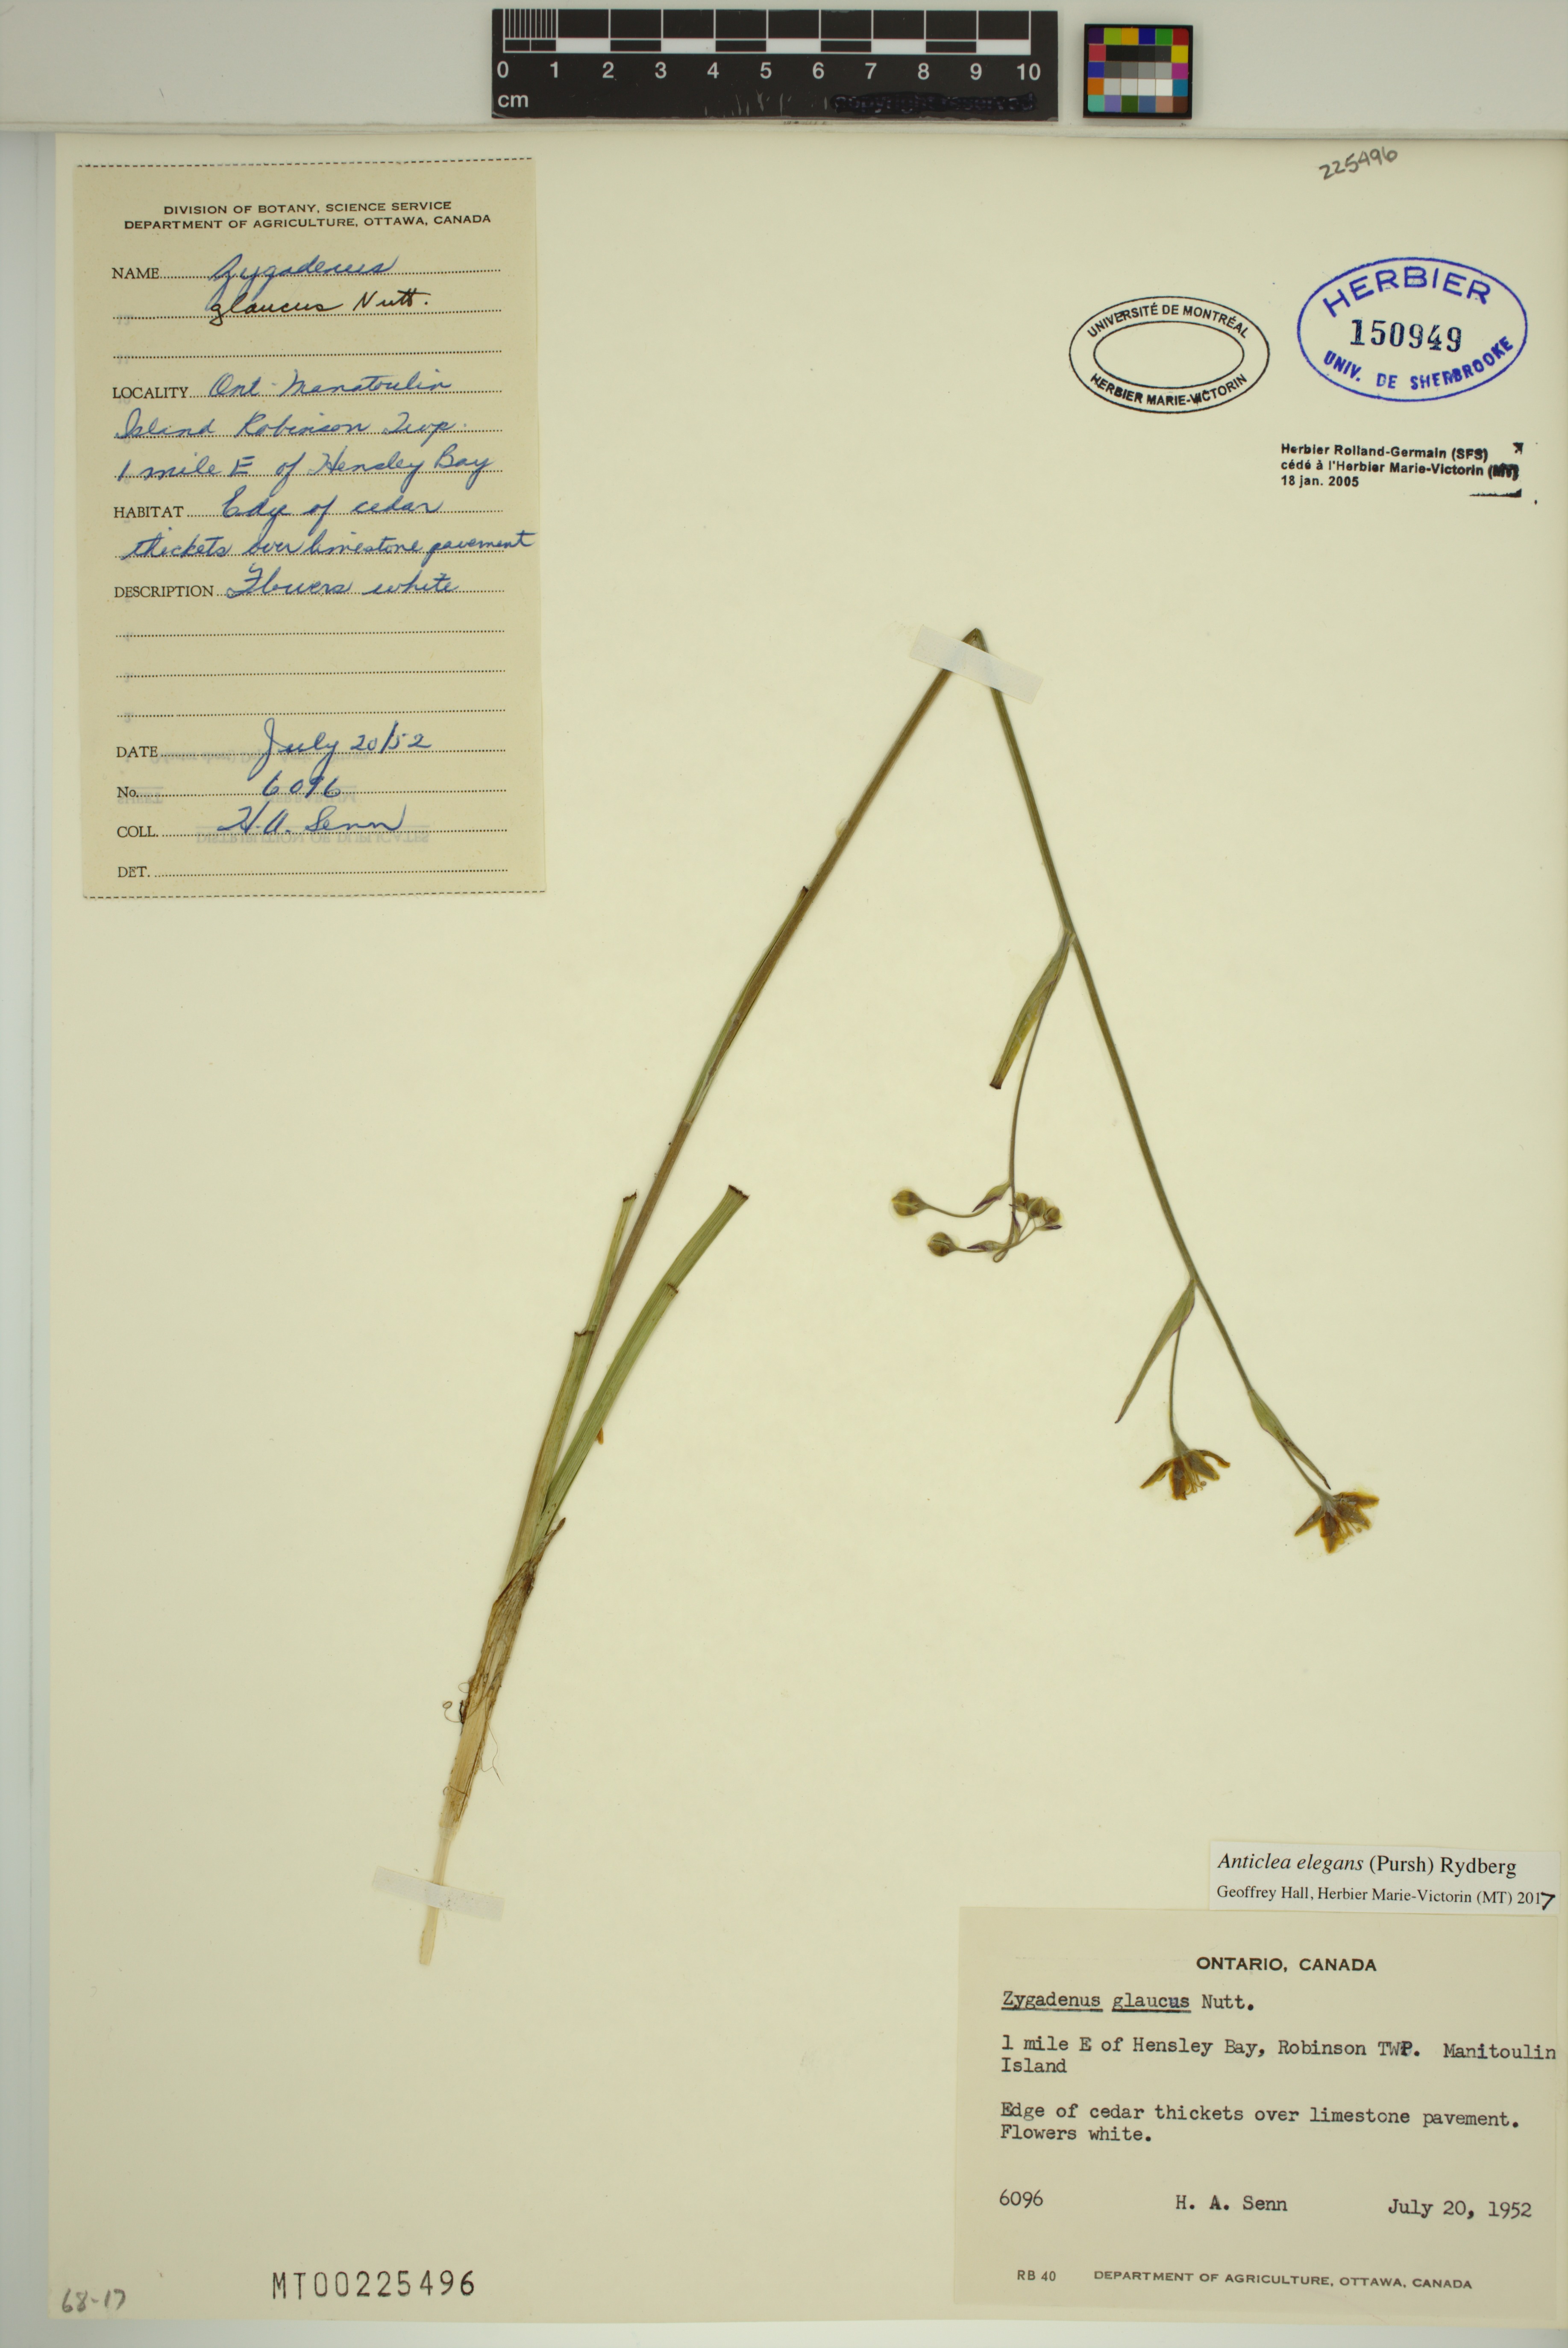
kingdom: Plantae
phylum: Tracheophyta
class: Liliopsida
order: Liliales
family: Melanthiaceae
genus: Anticlea
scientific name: Anticlea elegans
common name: Mountain death camas
